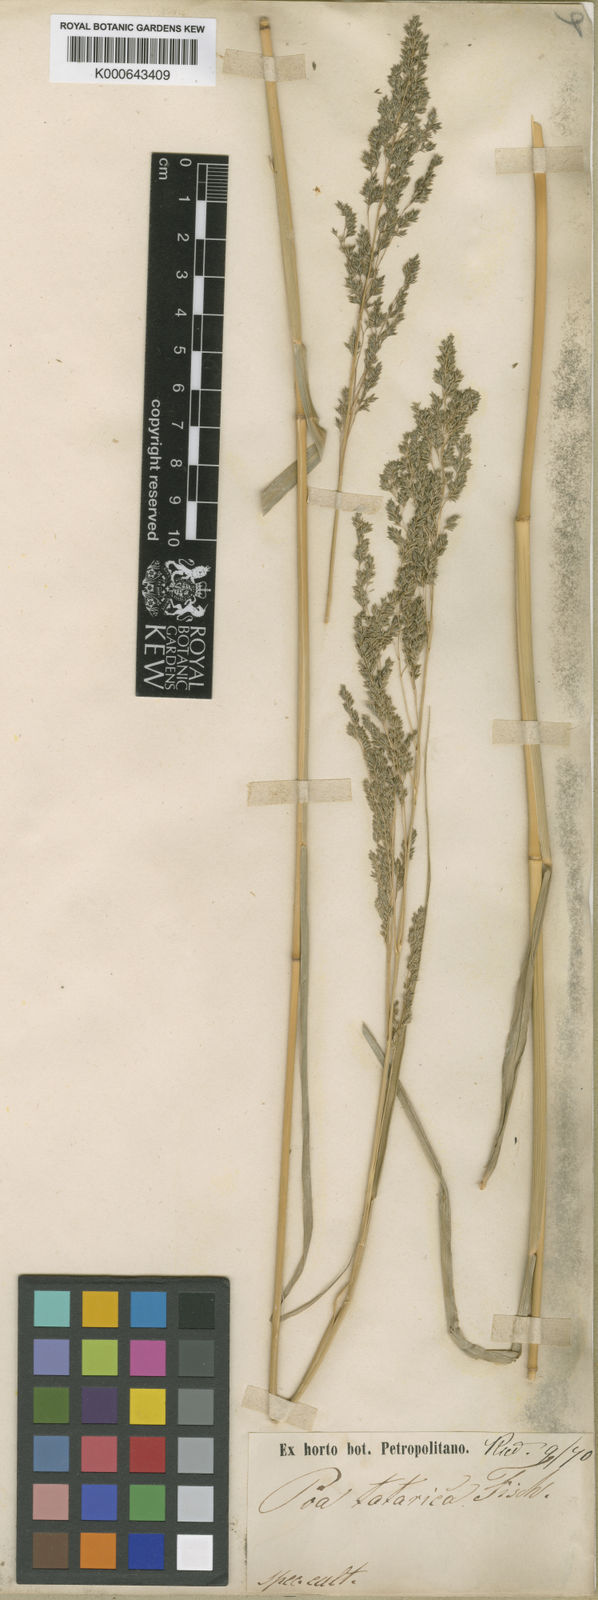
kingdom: Plantae
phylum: Tracheophyta
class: Liliopsida
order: Poales
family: Poaceae
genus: Eragrostis
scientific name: Eragrostis collina
